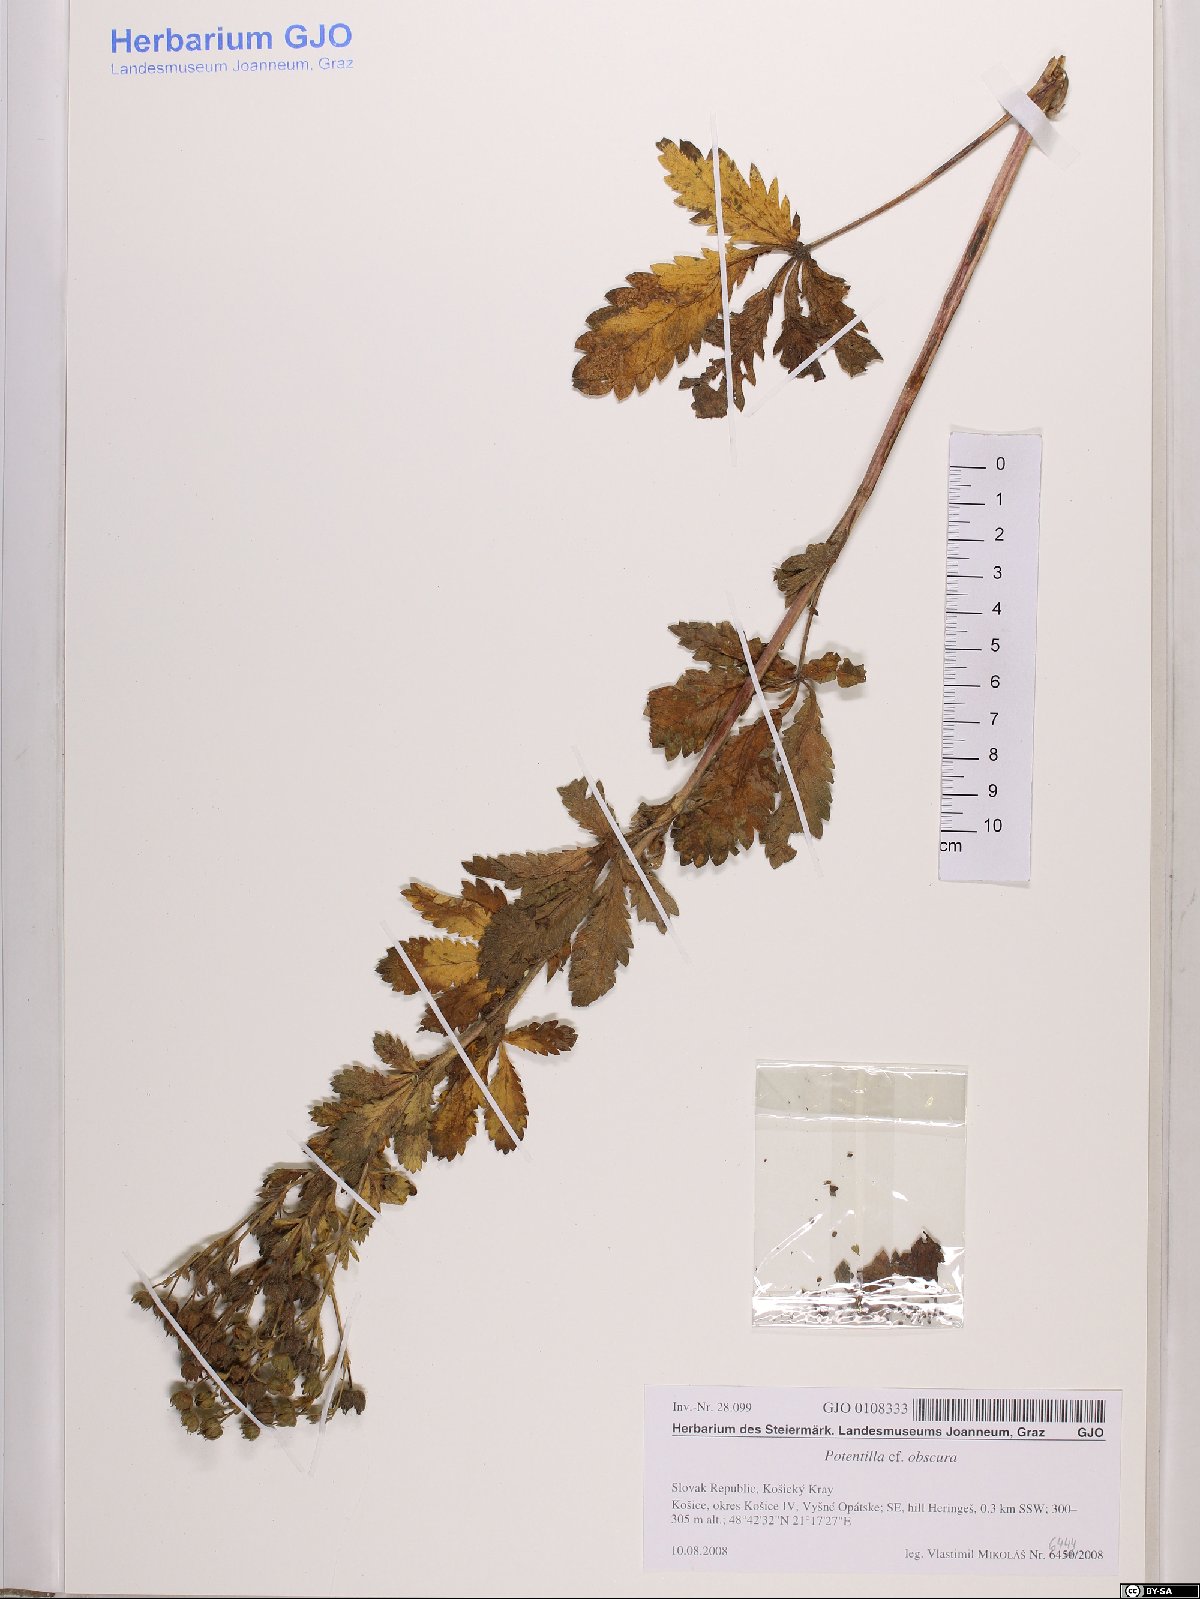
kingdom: Plantae
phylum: Tracheophyta
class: Magnoliopsida
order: Rosales
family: Rosaceae
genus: Potentilla
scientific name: Potentilla recta
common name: Sulphur cinquefoil
